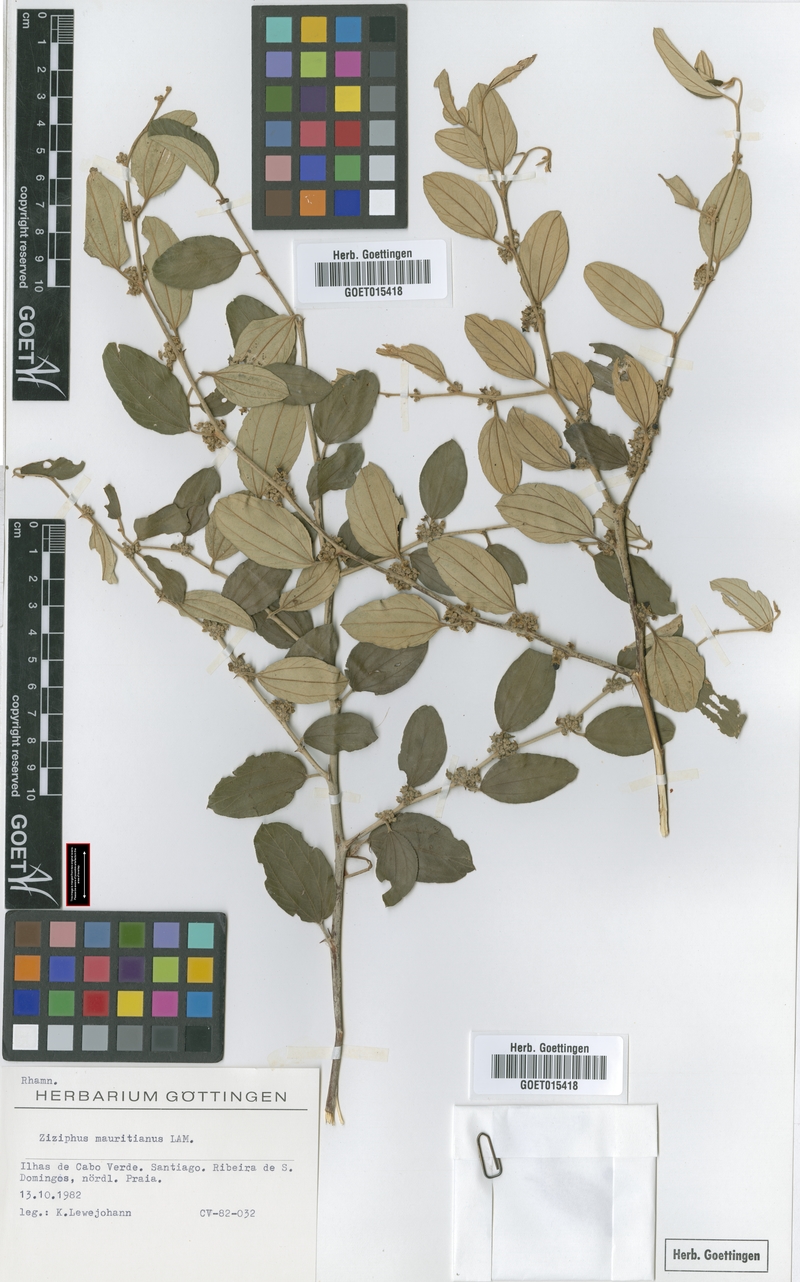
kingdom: Plantae
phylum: Tracheophyta
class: Magnoliopsida
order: Rosales
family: Rhamnaceae
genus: Ziziphus
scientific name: Ziziphus mauritiana
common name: Indian jujube
